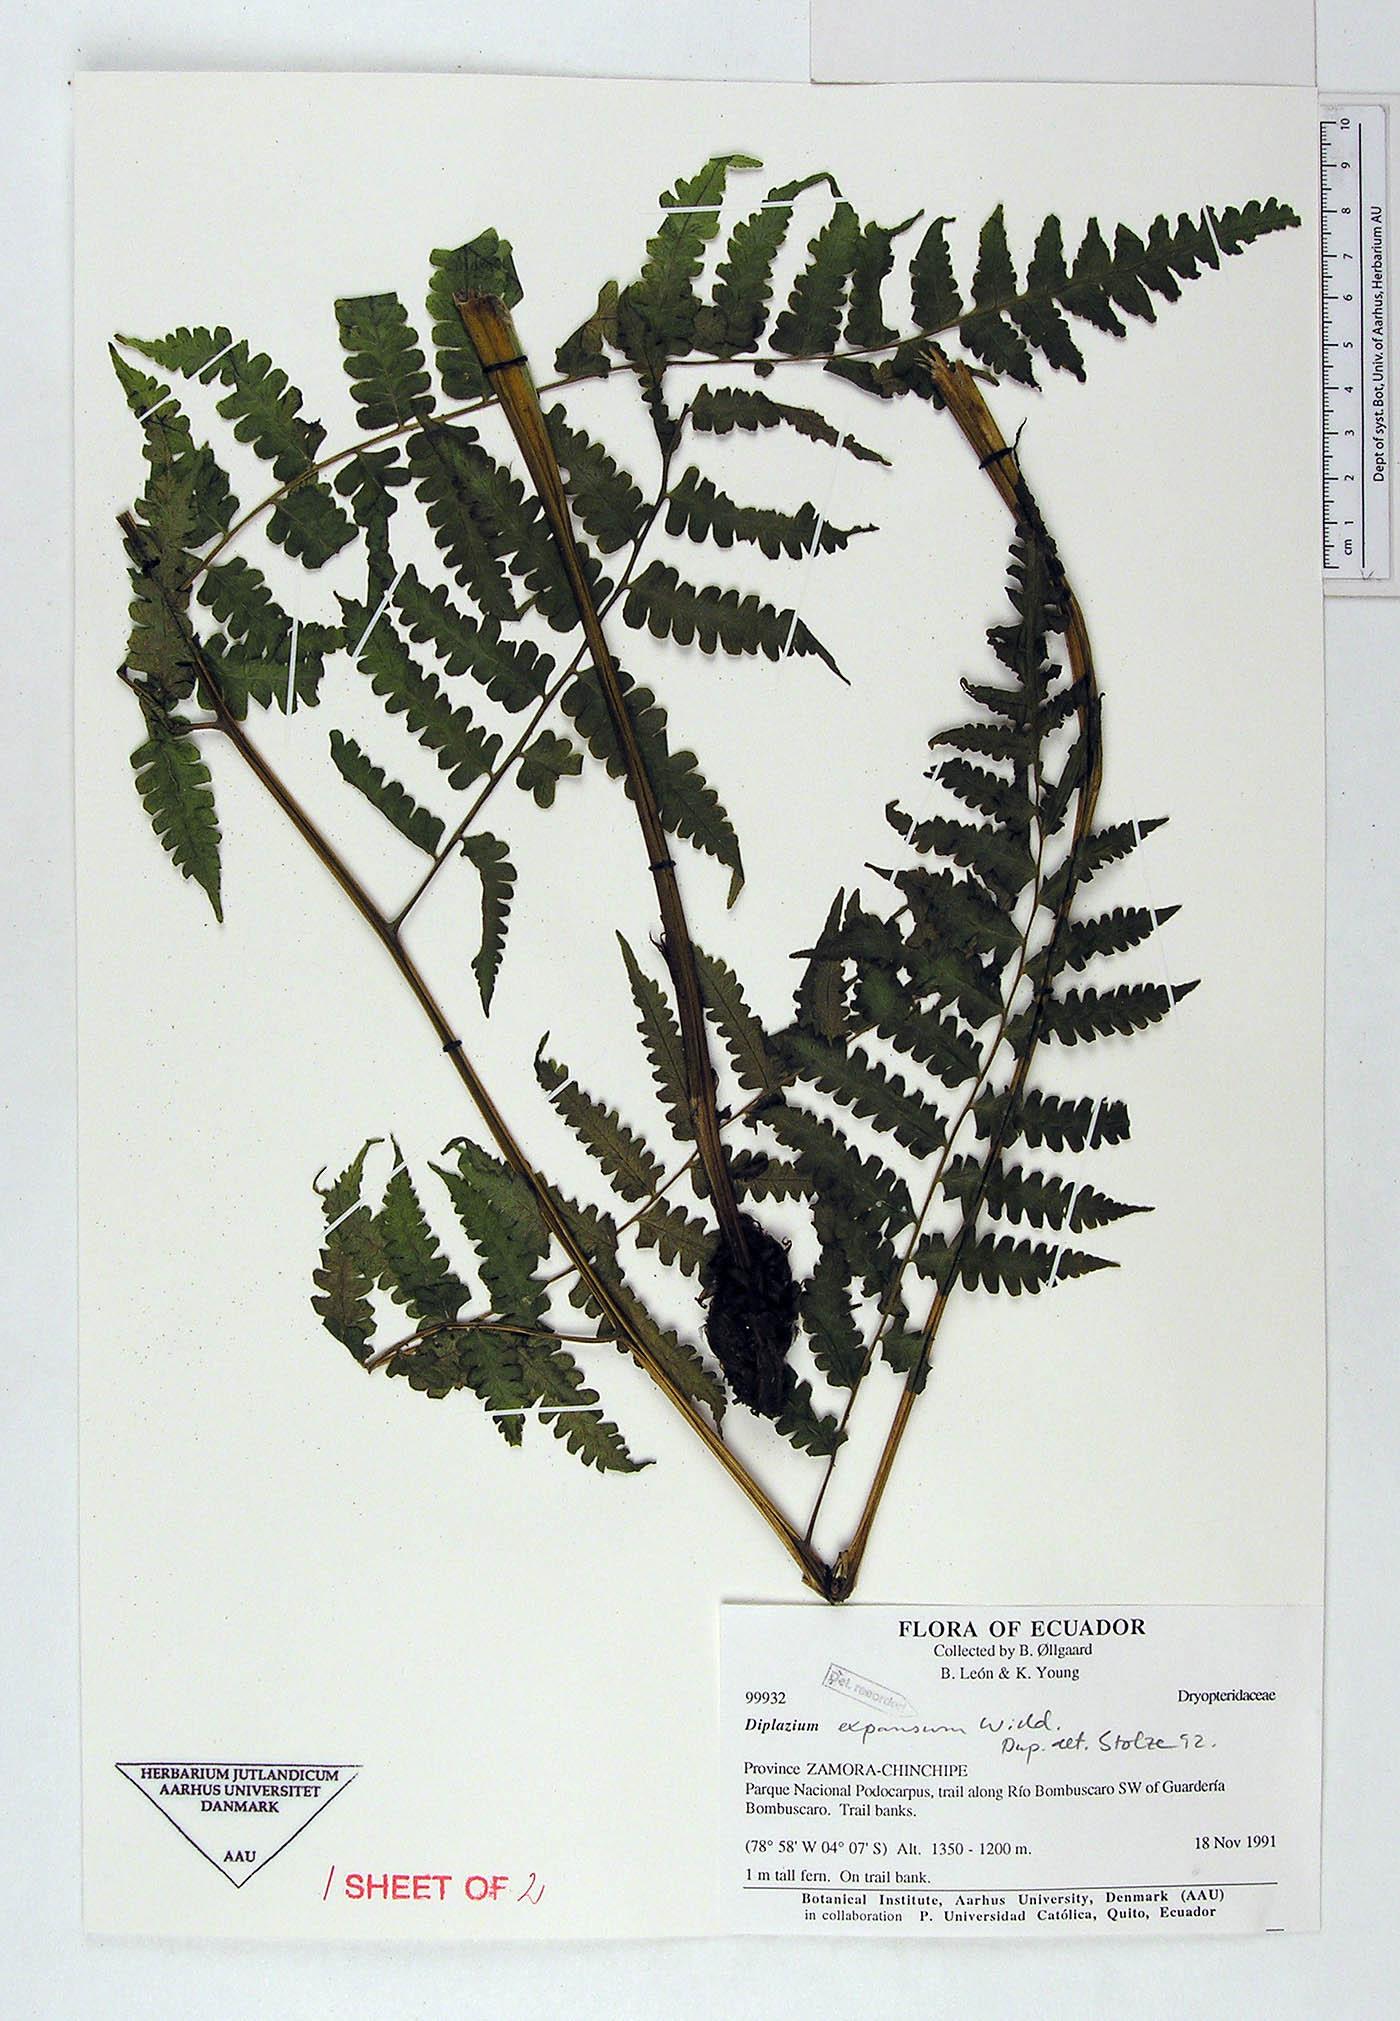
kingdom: Plantae
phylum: Tracheophyta
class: Polypodiopsida
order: Polypodiales
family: Athyriaceae
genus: Diplazium
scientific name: Diplazium expansum
